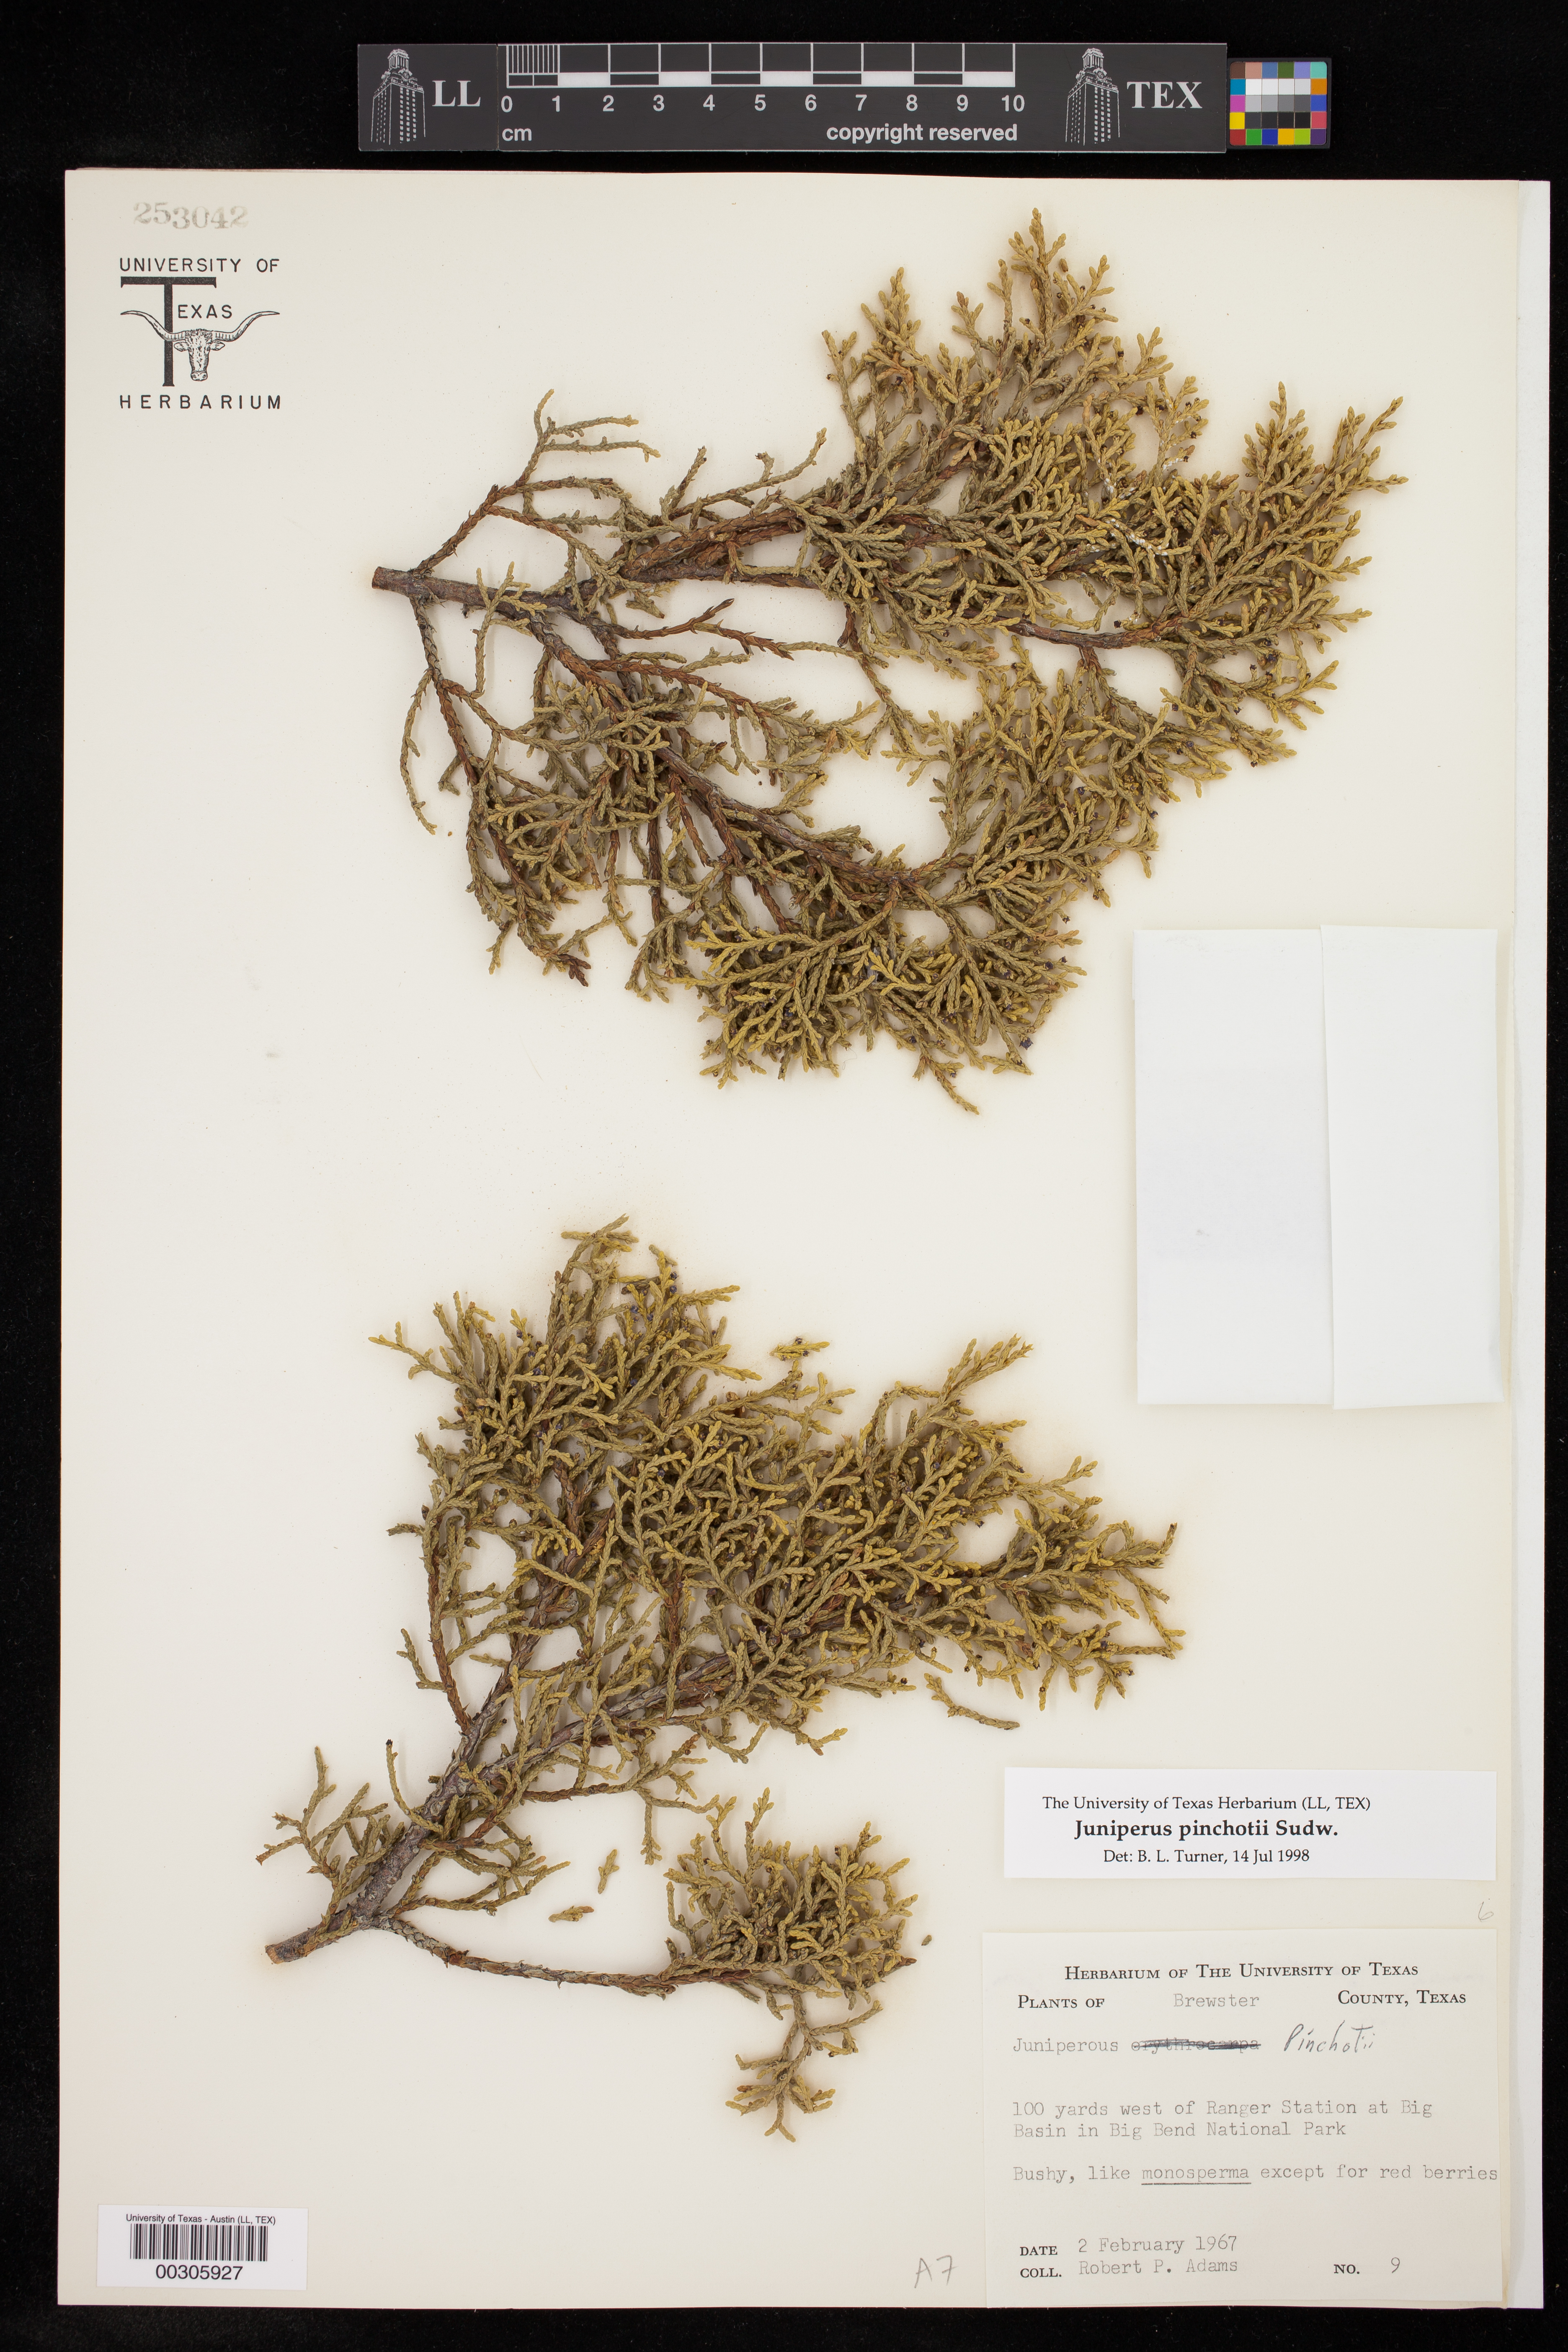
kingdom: Plantae
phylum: Tracheophyta
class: Pinopsida
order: Pinales
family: Cupressaceae
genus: Juniperus
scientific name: Juniperus pinchotii
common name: Pinchot juniper
